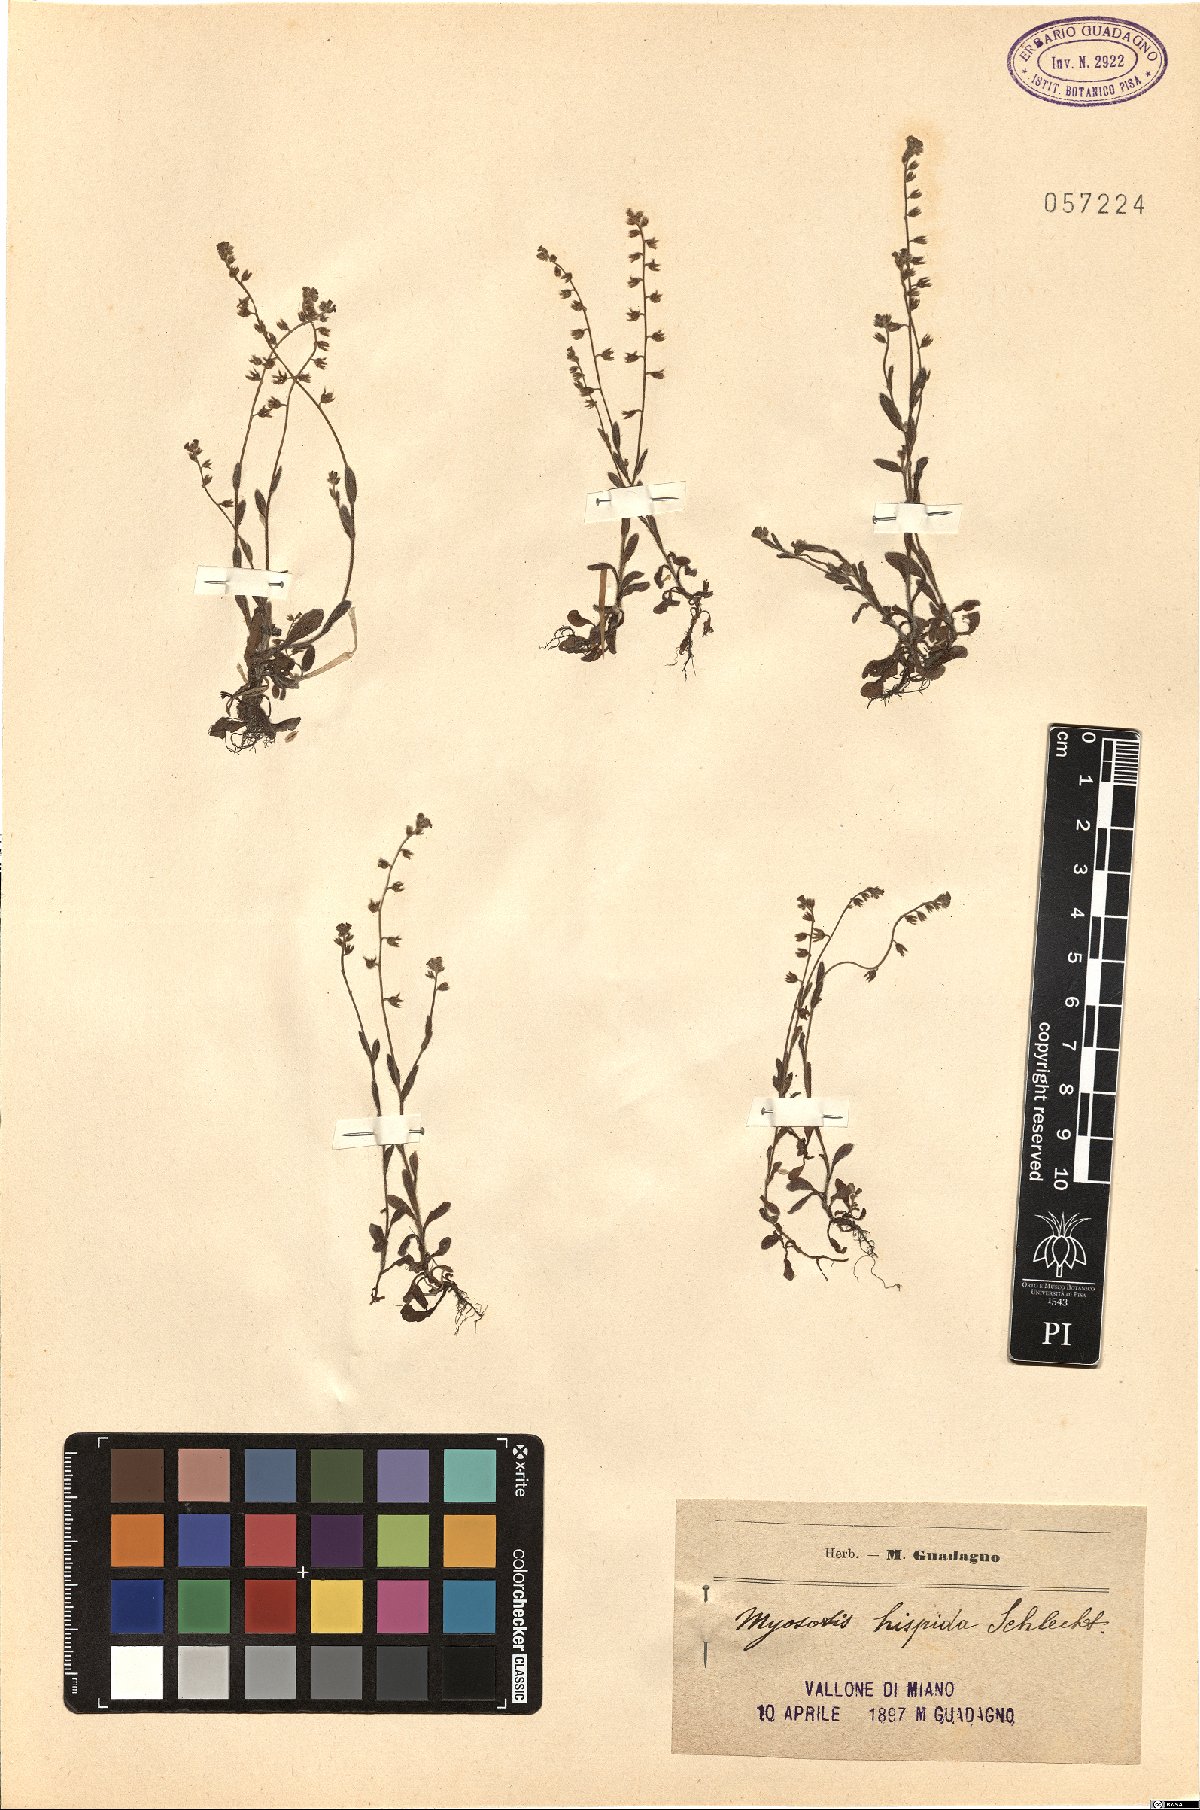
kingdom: Plantae
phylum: Tracheophyta
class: Magnoliopsida
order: Boraginales
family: Boraginaceae
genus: Myosotis
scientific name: Myosotis ramosissima
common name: Early forget-me-not
